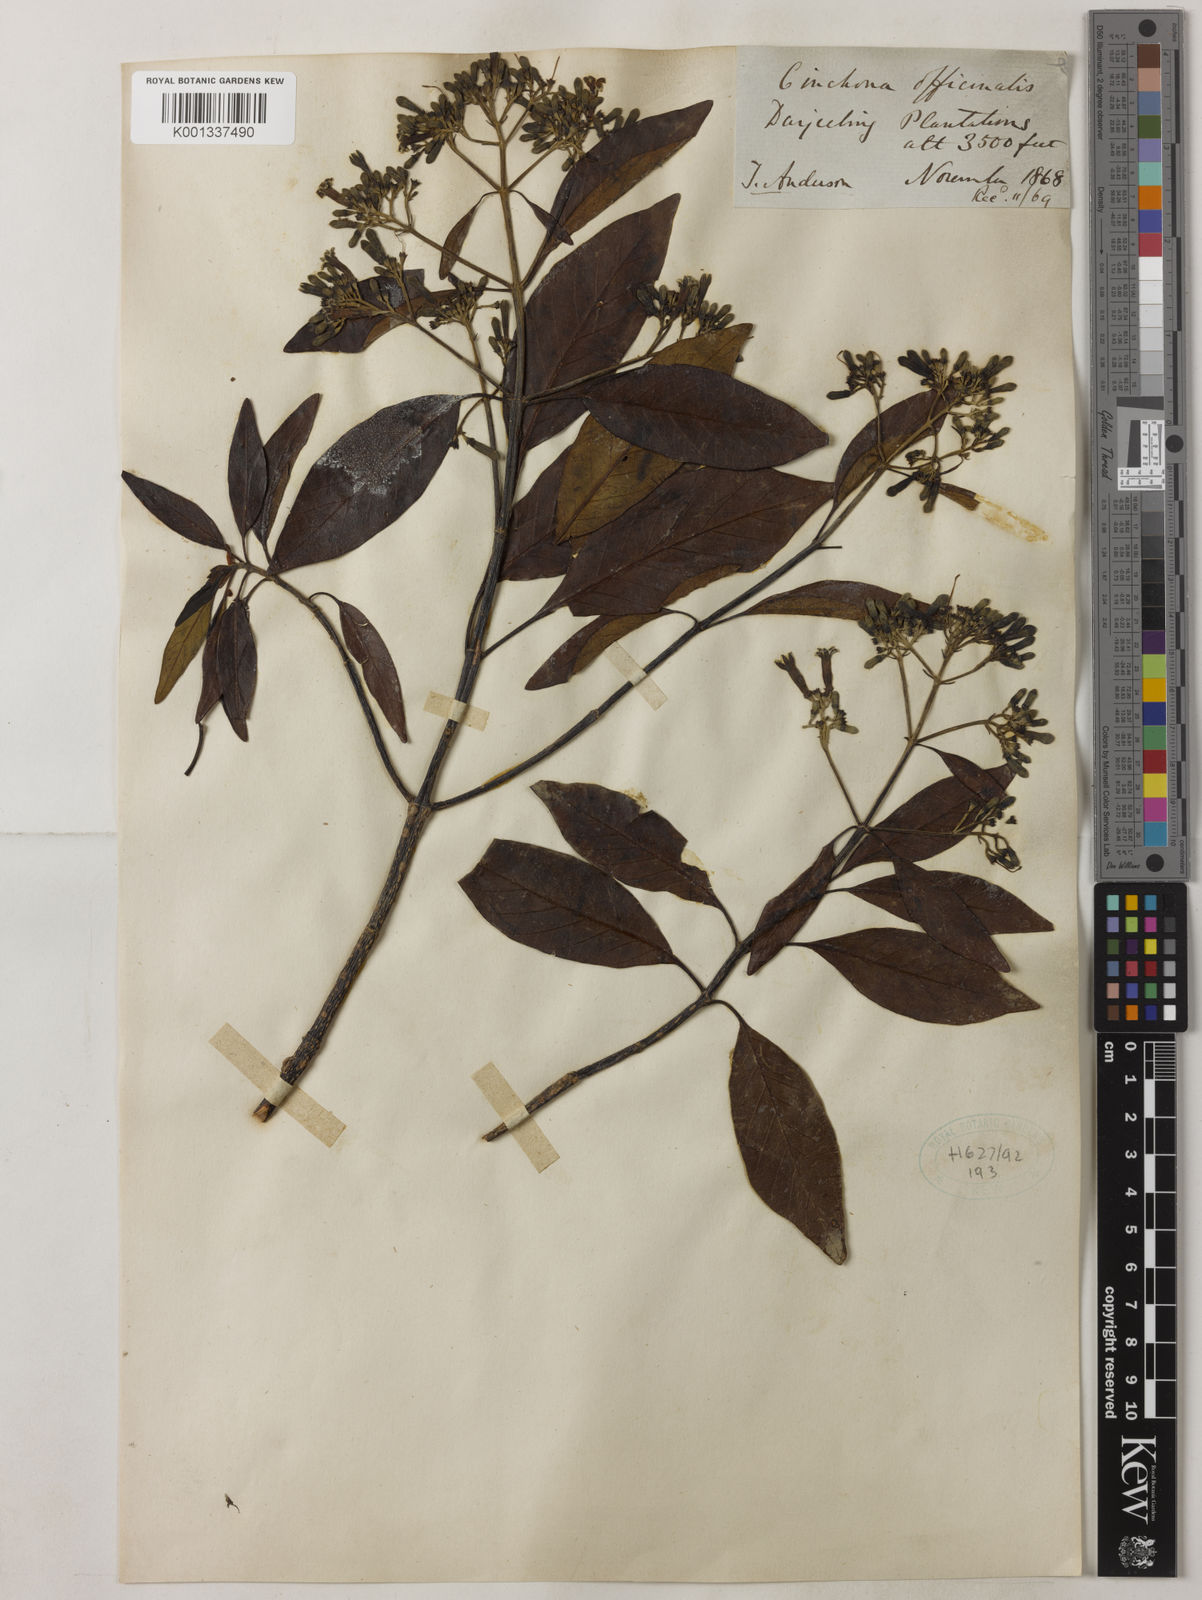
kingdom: Plantae
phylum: Tracheophyta
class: Magnoliopsida
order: Gentianales
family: Rubiaceae
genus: Cinchona
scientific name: Cinchona officinalis
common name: Lojabark
